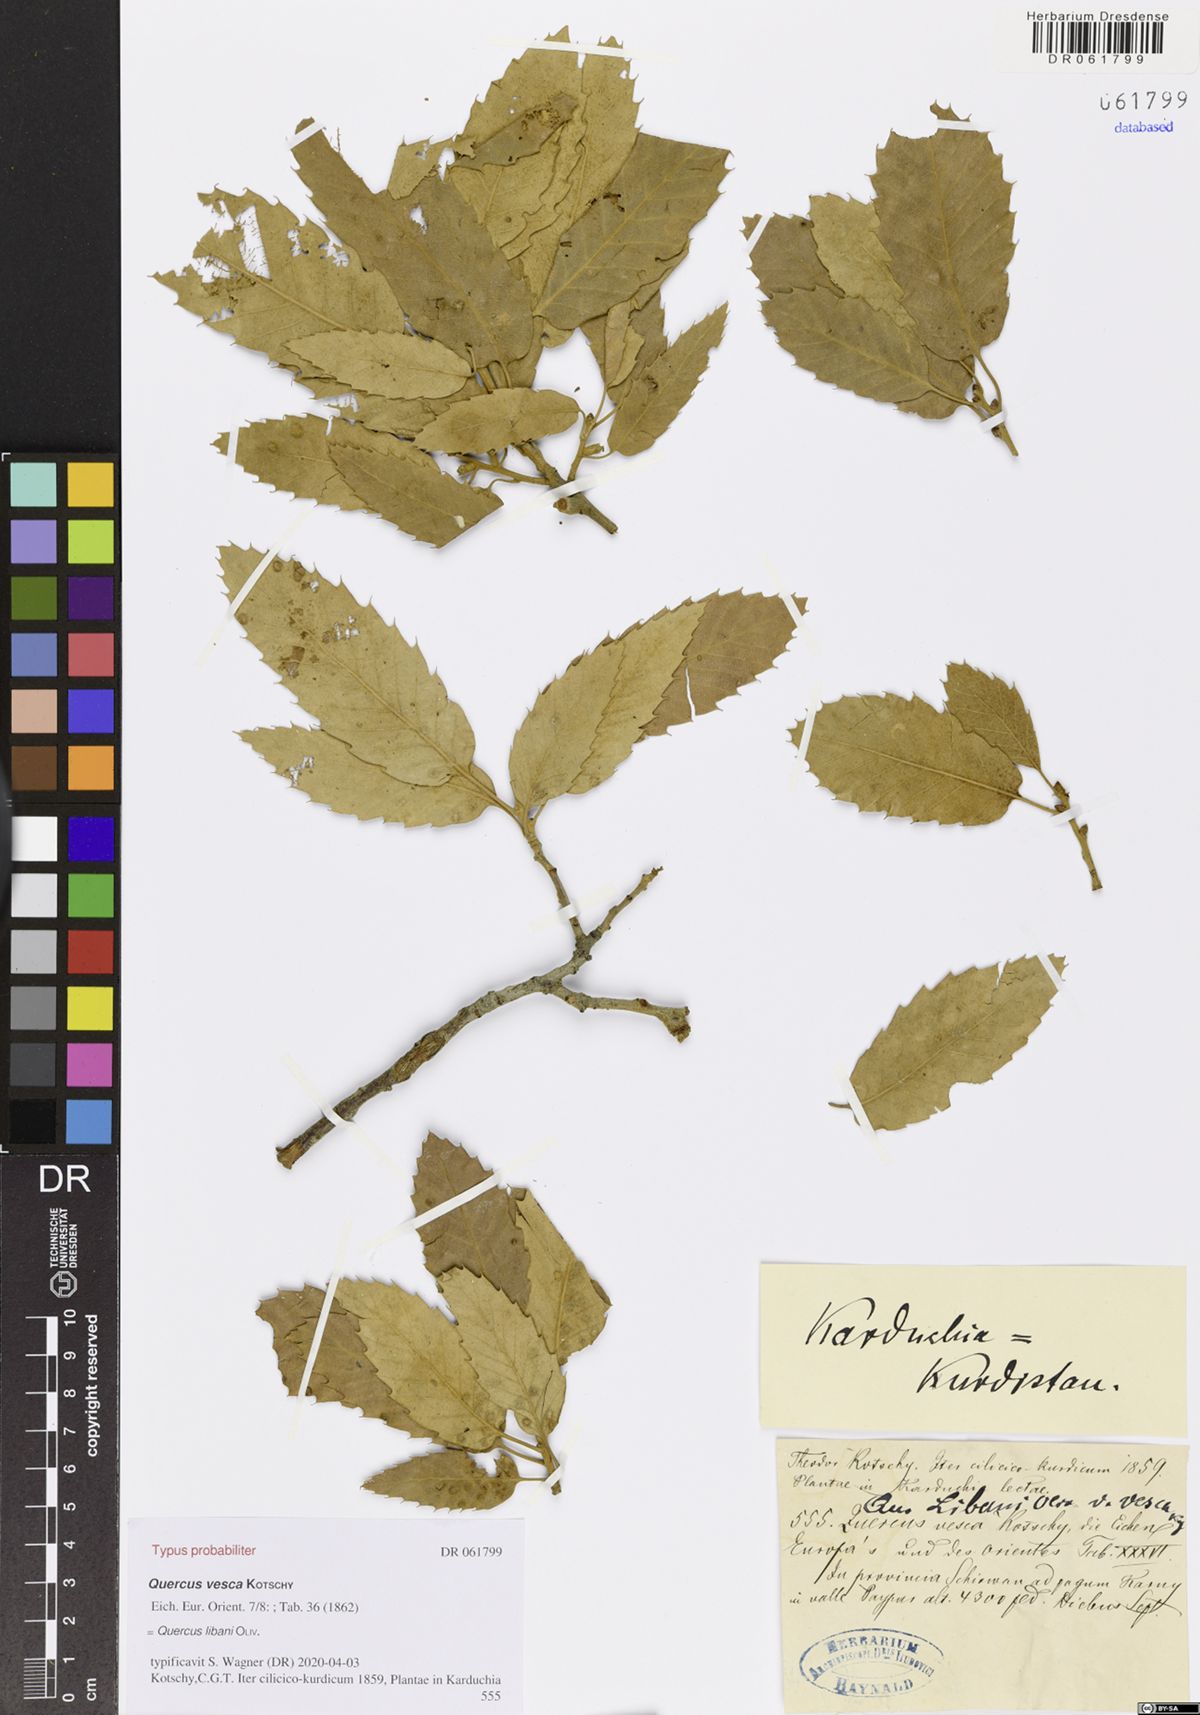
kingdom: Plantae
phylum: Tracheophyta
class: Magnoliopsida
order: Fagales
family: Fagaceae
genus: Quercus
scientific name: Quercus libani
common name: Lebanon oak
